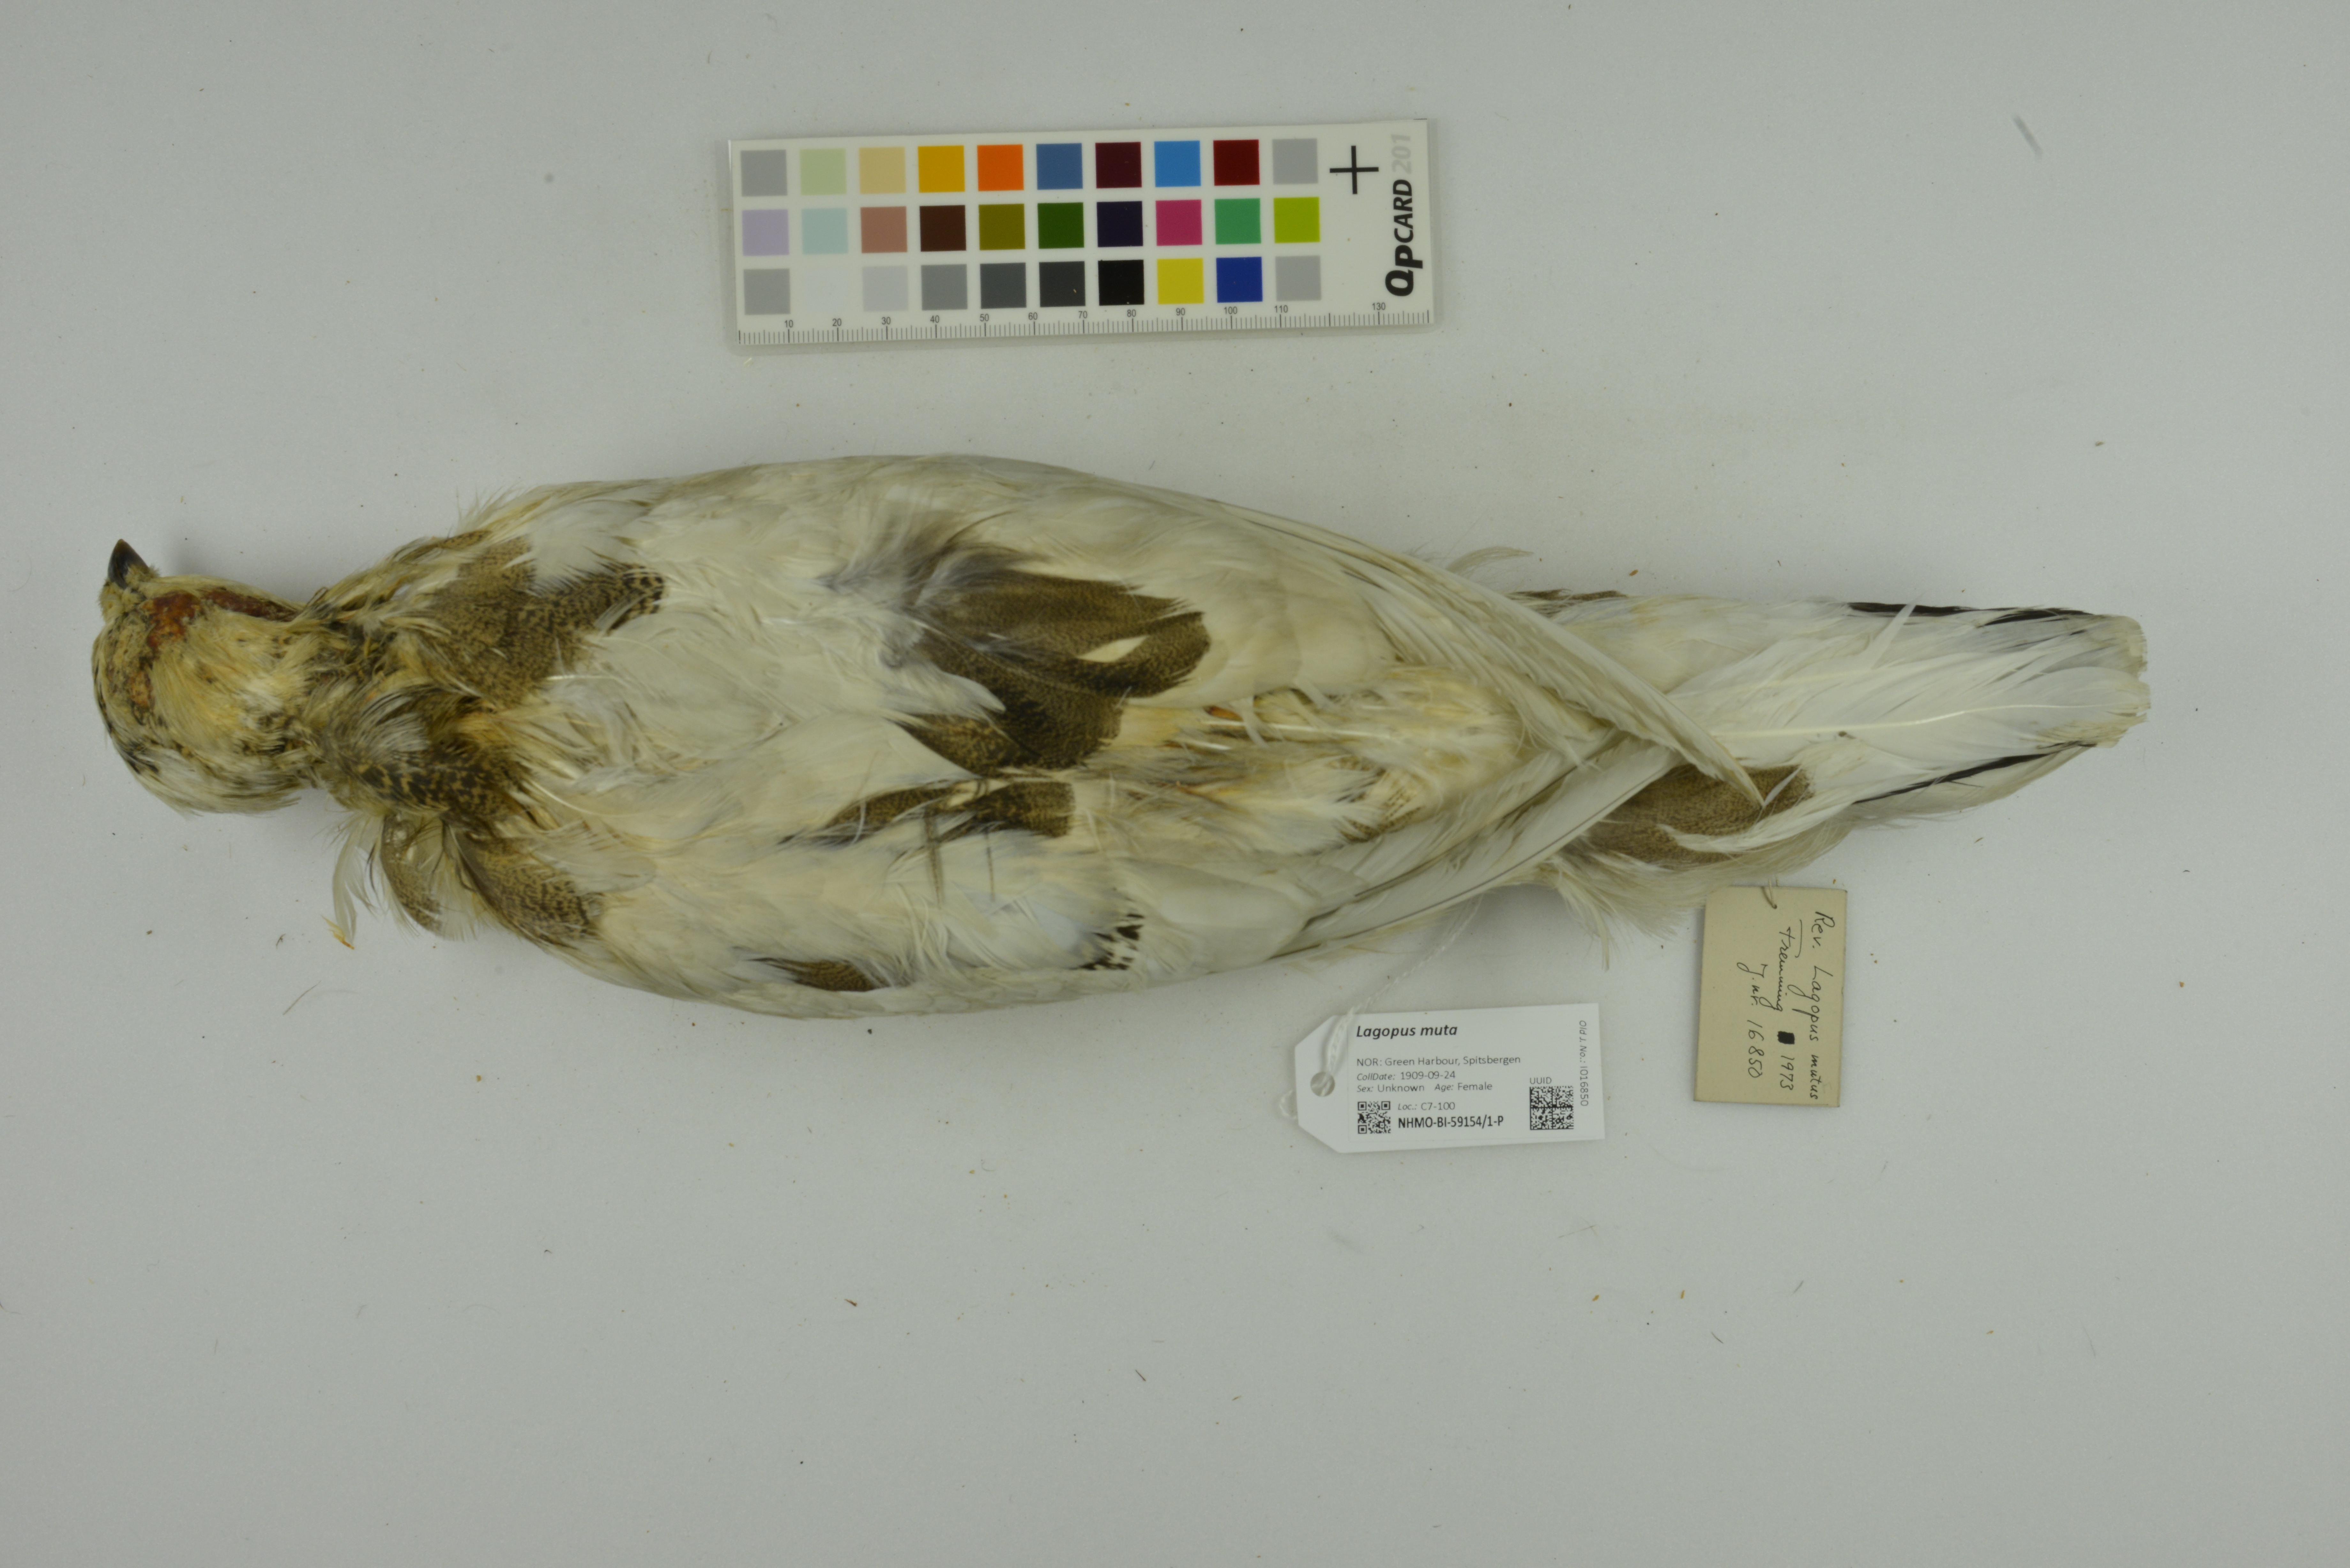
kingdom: Animalia
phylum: Chordata
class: Aves
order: Galliformes
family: Phasianidae
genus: Lagopus
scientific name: Lagopus muta
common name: Rock ptarmigan
